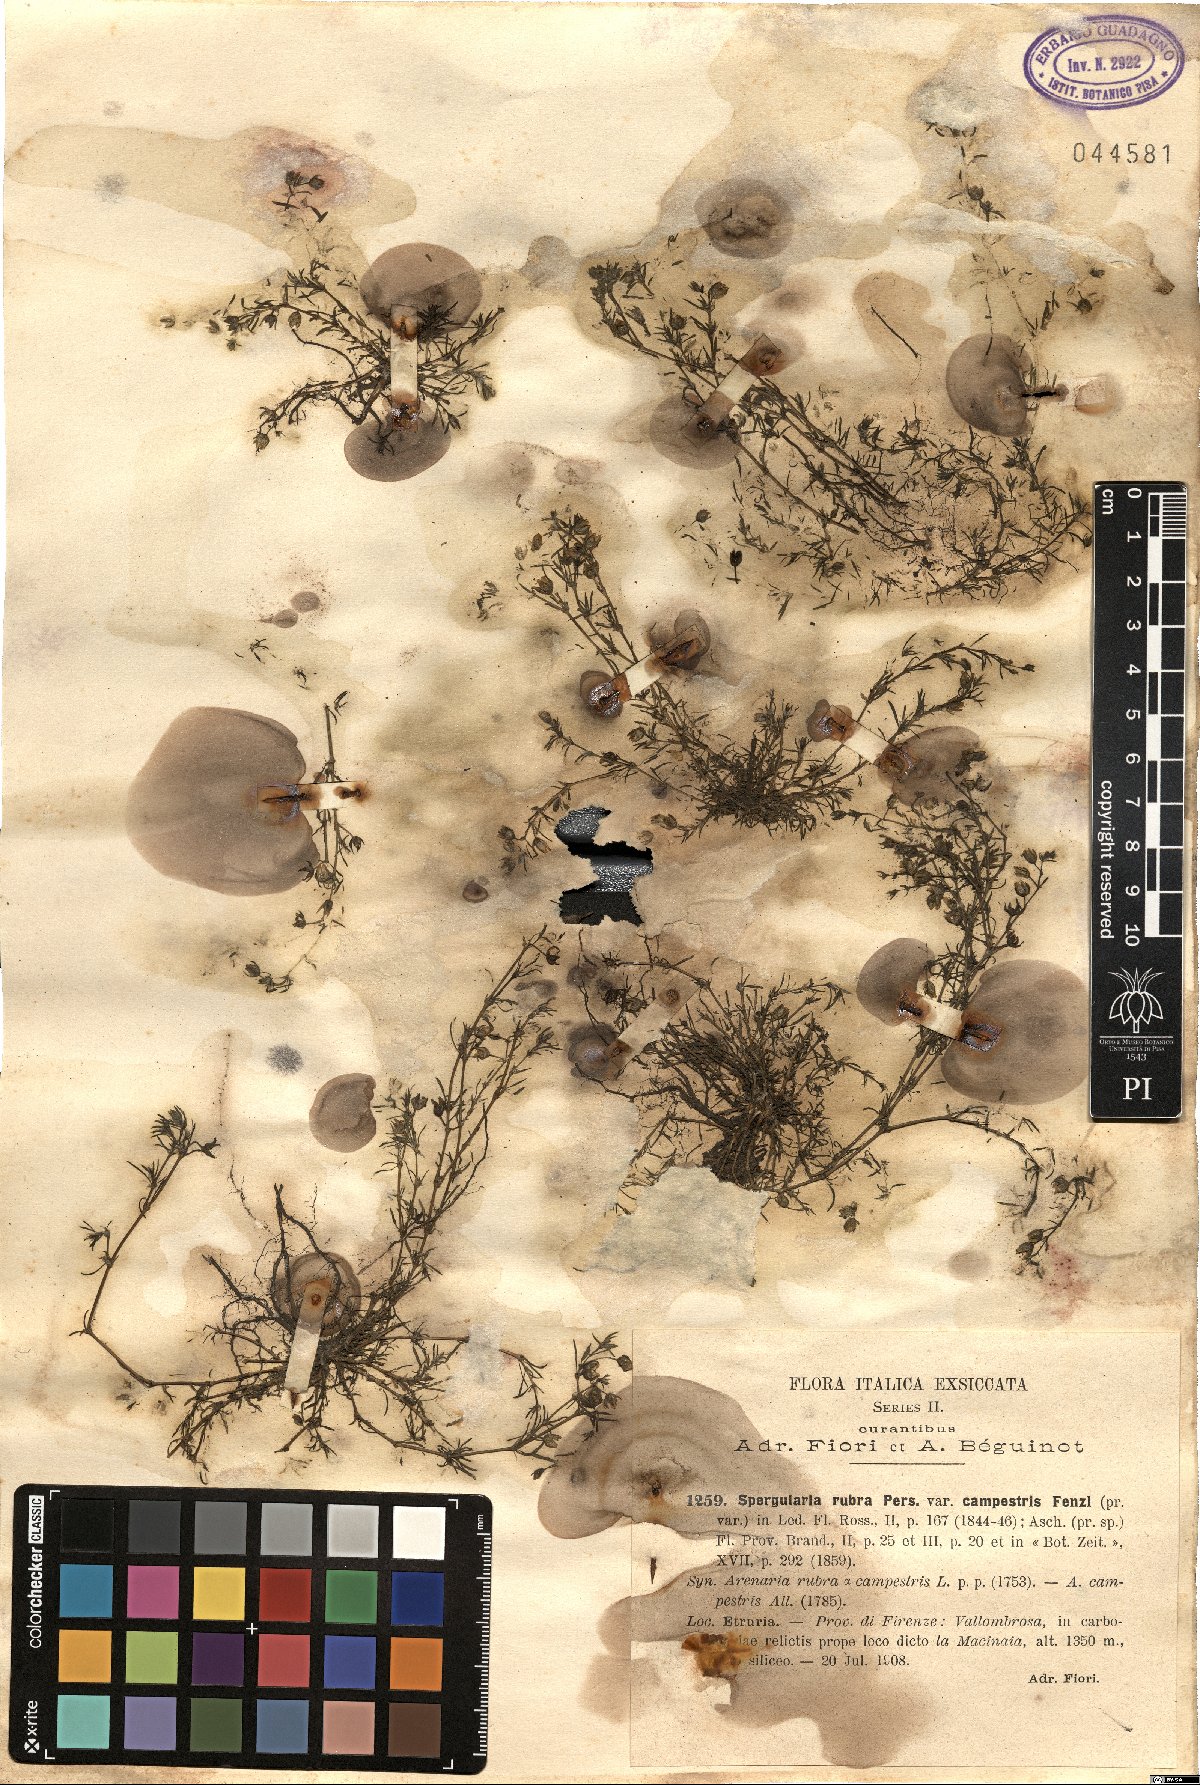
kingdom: Plantae
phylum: Tracheophyta
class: Magnoliopsida
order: Caryophyllales
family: Caryophyllaceae
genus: Spergularia
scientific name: Spergularia rubra
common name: Red sand-spurrey
